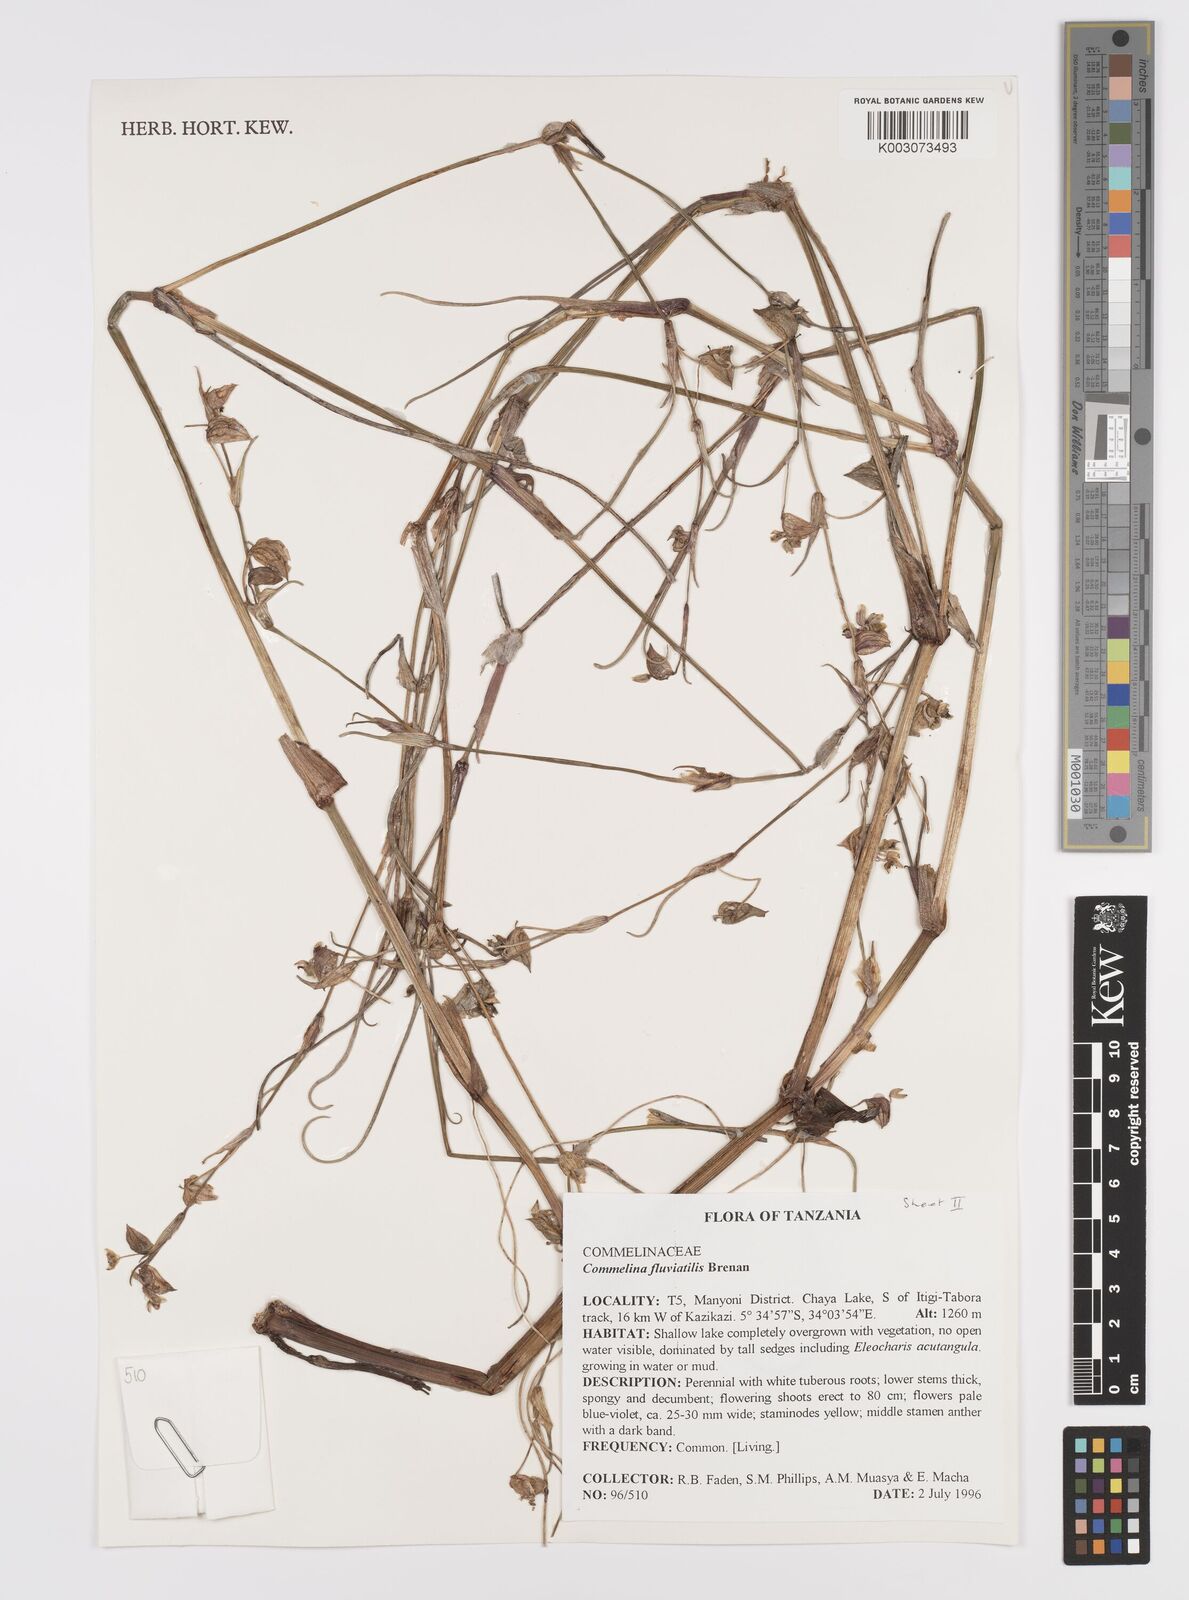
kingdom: Plantae
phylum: Tracheophyta
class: Liliopsida
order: Commelinales
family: Commelinaceae
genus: Commelina
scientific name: Commelina fluviatilis
